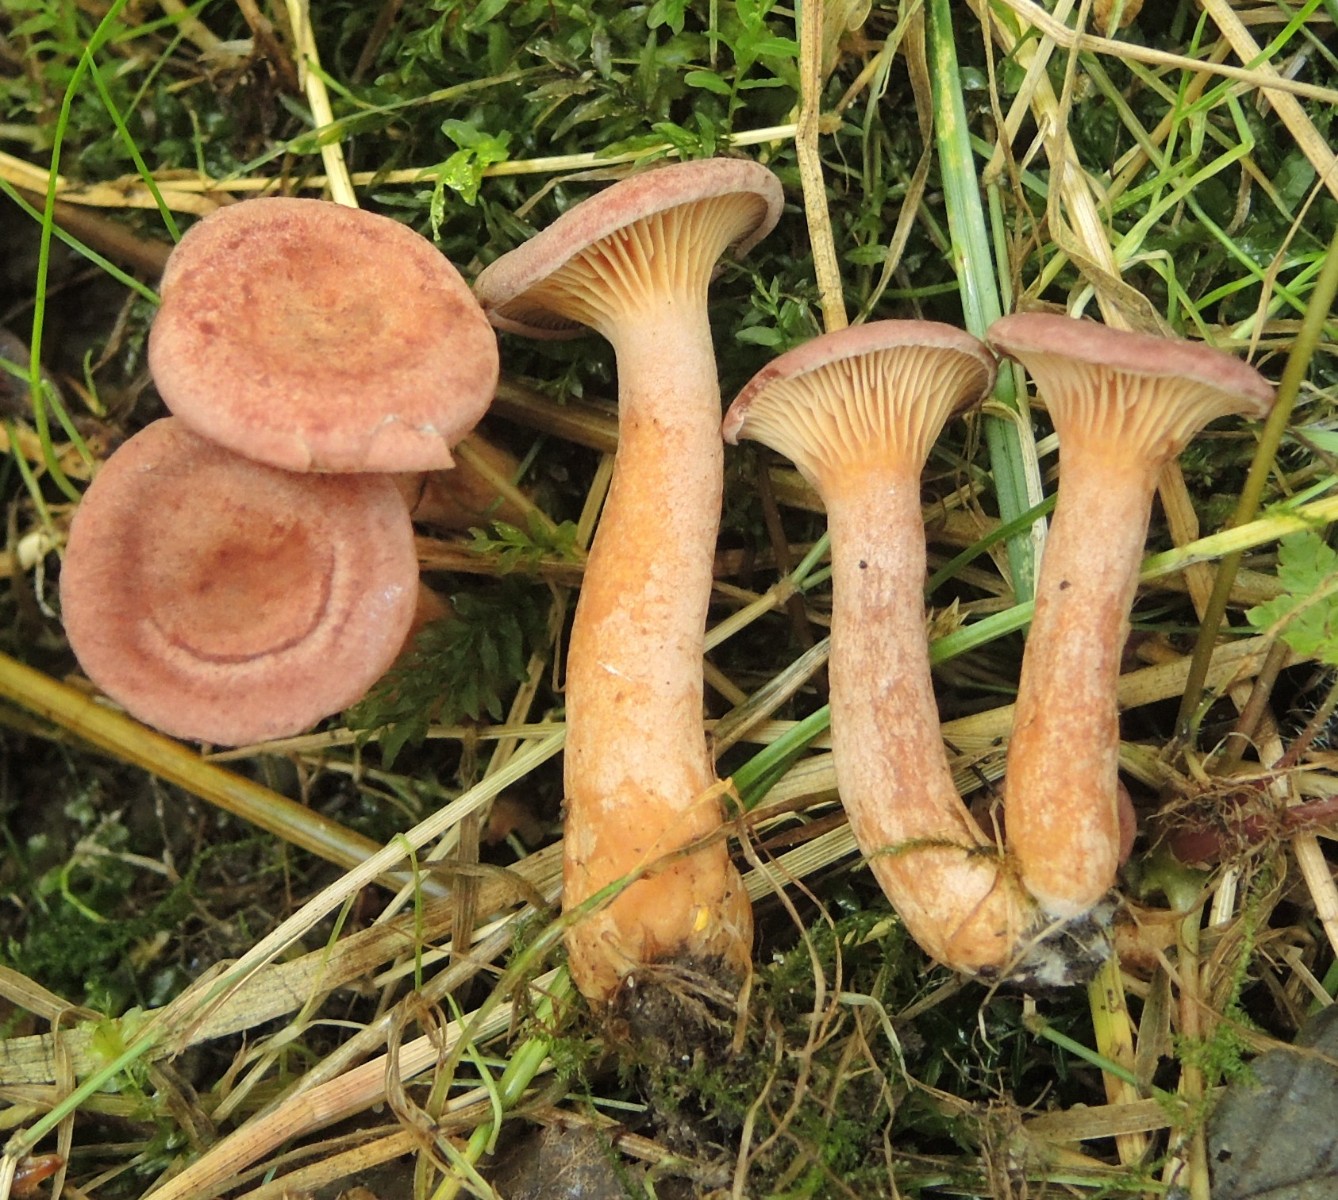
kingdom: Fungi
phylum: Basidiomycota
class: Agaricomycetes
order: Russulales
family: Russulaceae
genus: Lactarius
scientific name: Lactarius lilacinus
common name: lilla mælkehat
